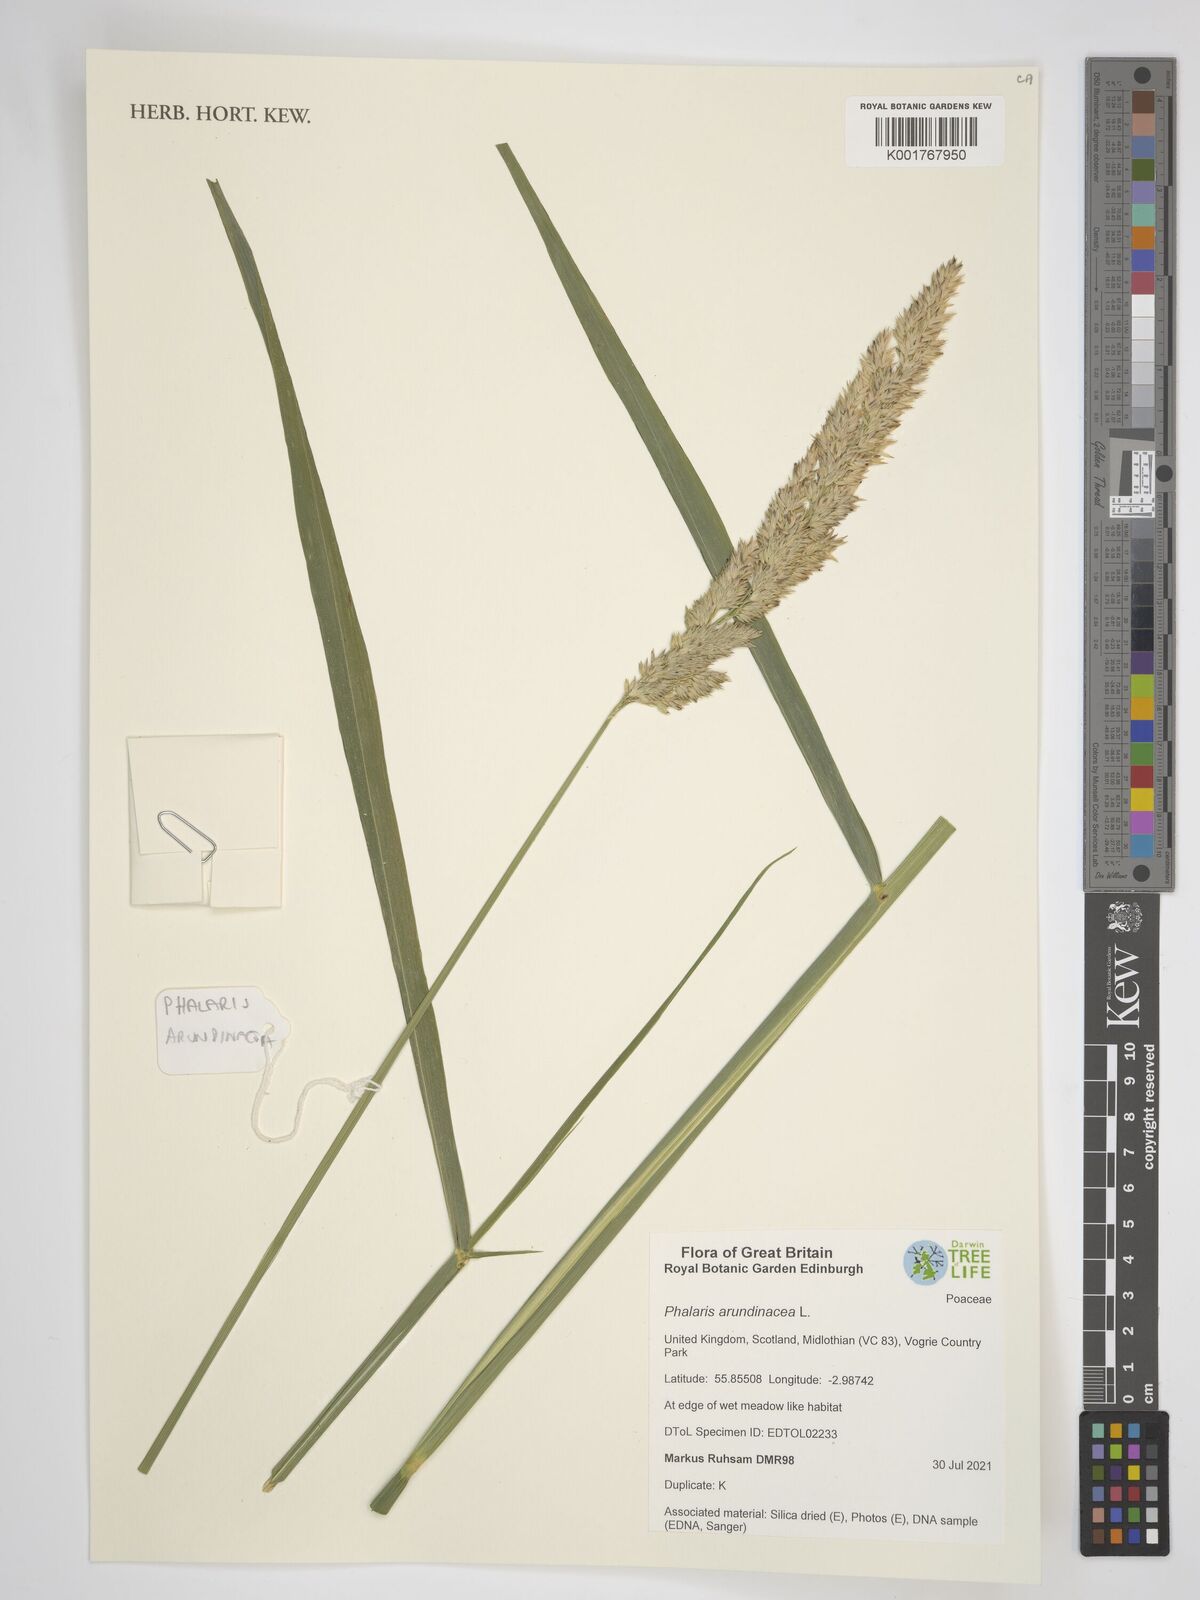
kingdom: Plantae
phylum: Tracheophyta
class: Liliopsida
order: Poales
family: Poaceae
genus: Phalaris
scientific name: Phalaris arundinacea
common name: Reed canary-grass
